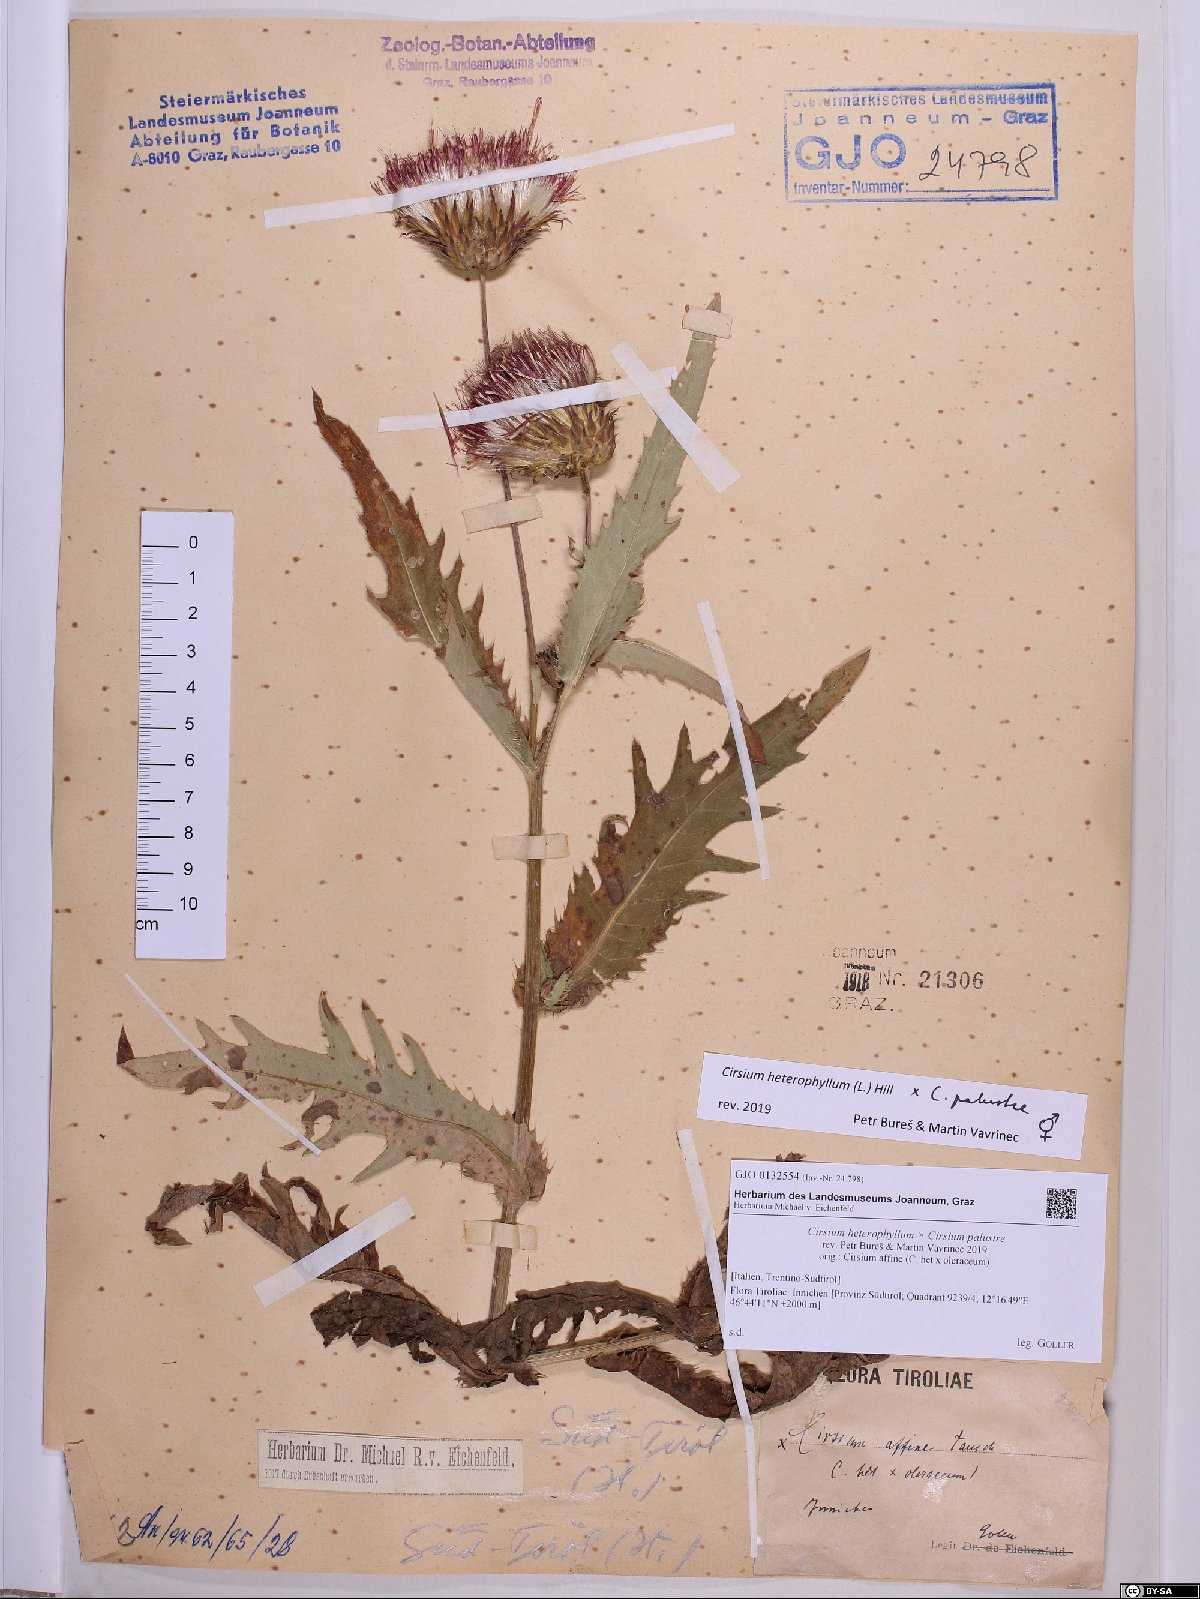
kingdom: Plantae
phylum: Tracheophyta
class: Magnoliopsida
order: Asterales
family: Asteraceae
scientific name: Asteraceae
